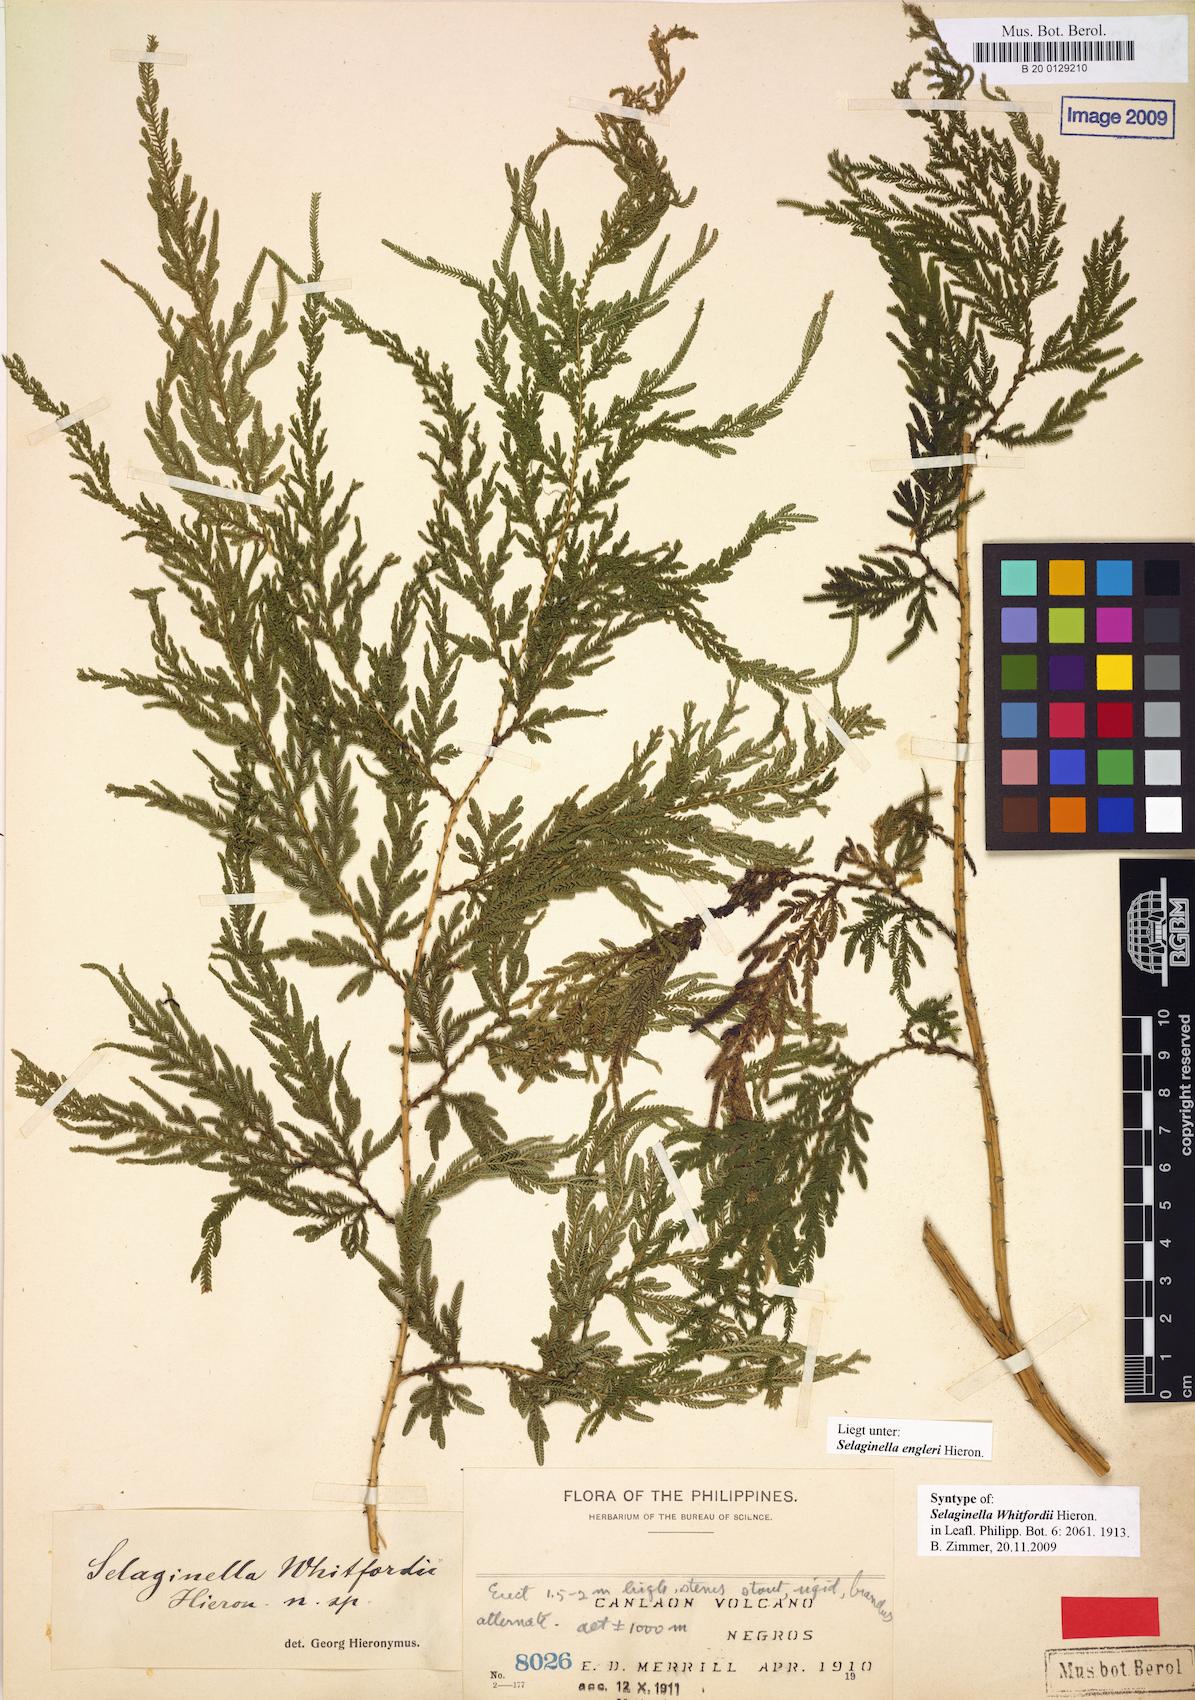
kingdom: Plantae
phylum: Tracheophyta
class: Lycopodiopsida
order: Selaginellales
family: Selaginellaceae
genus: Selaginella
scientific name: Selaginella engleri
